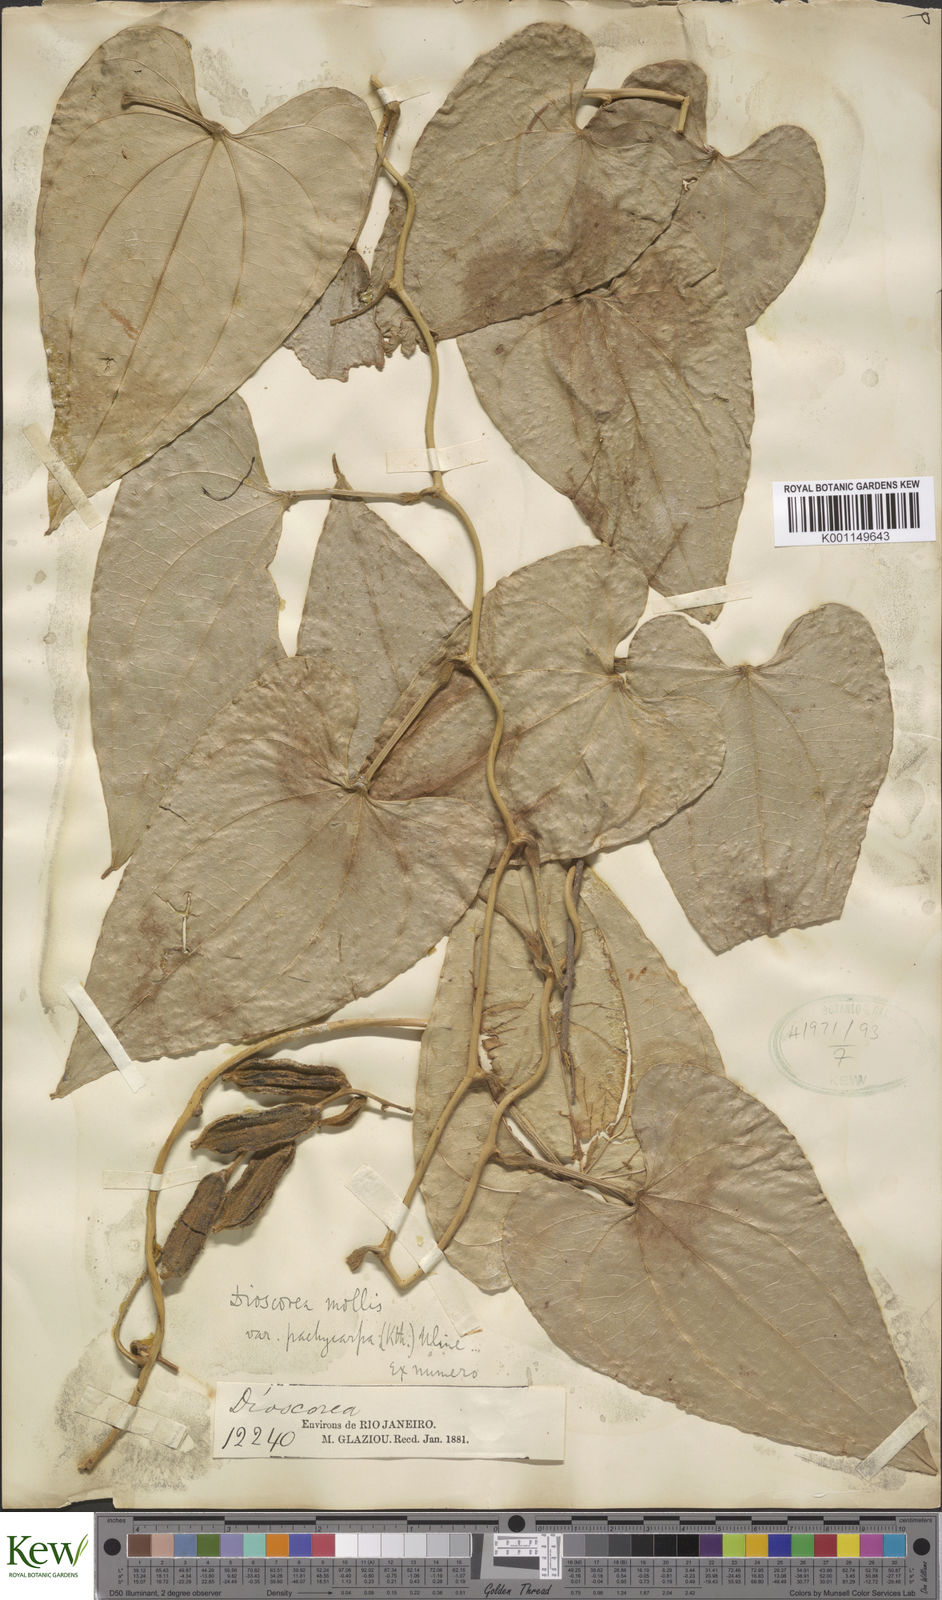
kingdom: Plantae
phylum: Tracheophyta
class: Liliopsida
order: Dioscoreales
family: Dioscoreaceae
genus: Dioscorea
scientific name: Dioscorea mollis
